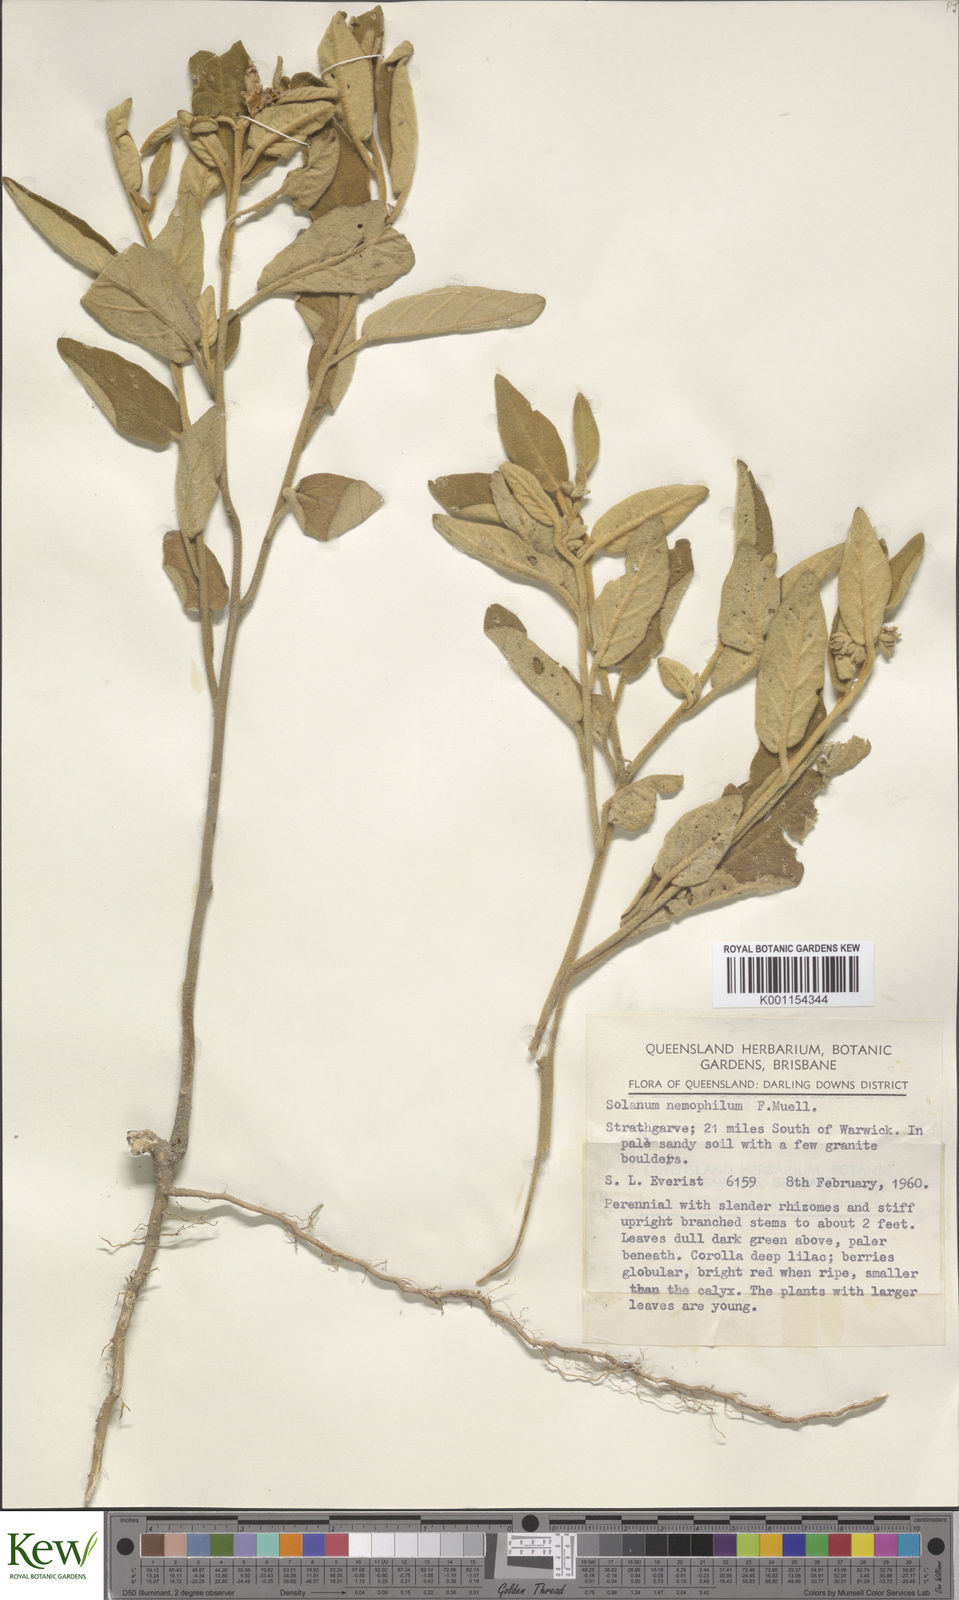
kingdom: Plantae
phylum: Tracheophyta
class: Magnoliopsida
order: Solanales
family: Solanaceae
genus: Solanum
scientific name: Solanum nemophilum
